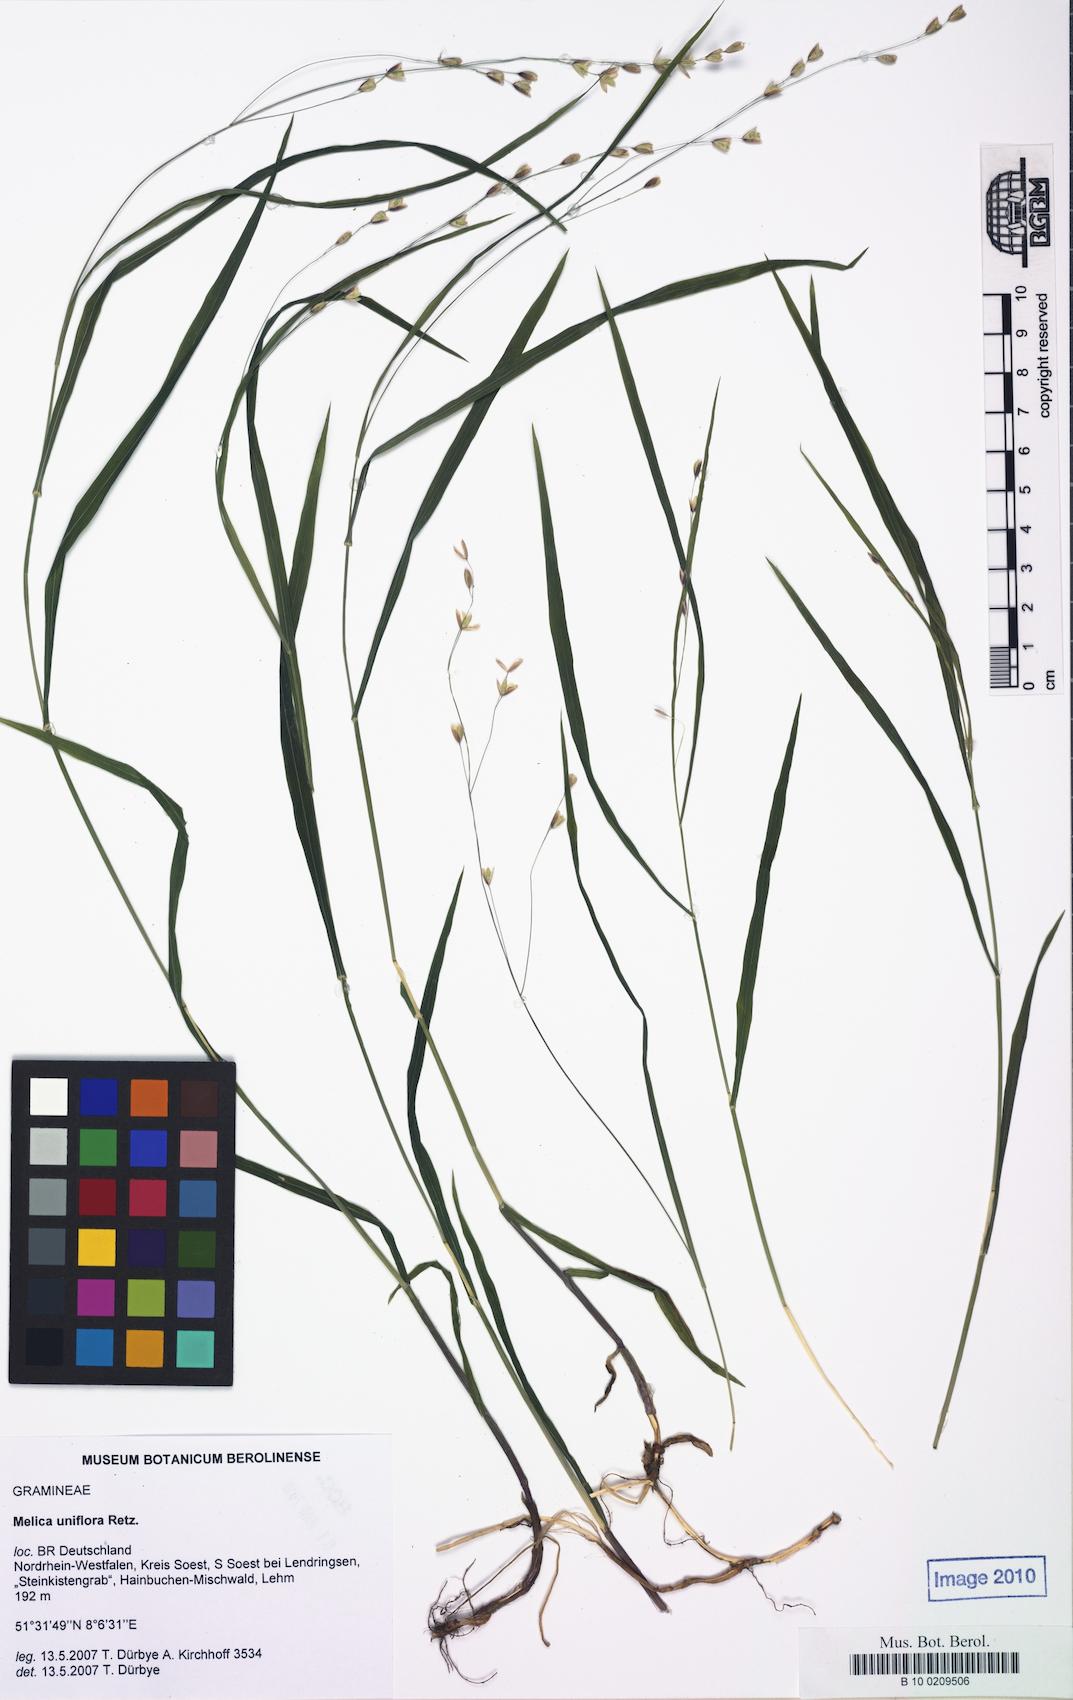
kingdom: Plantae
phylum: Tracheophyta
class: Liliopsida
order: Poales
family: Poaceae
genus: Melica
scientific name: Melica uniflora
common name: Wood melick
